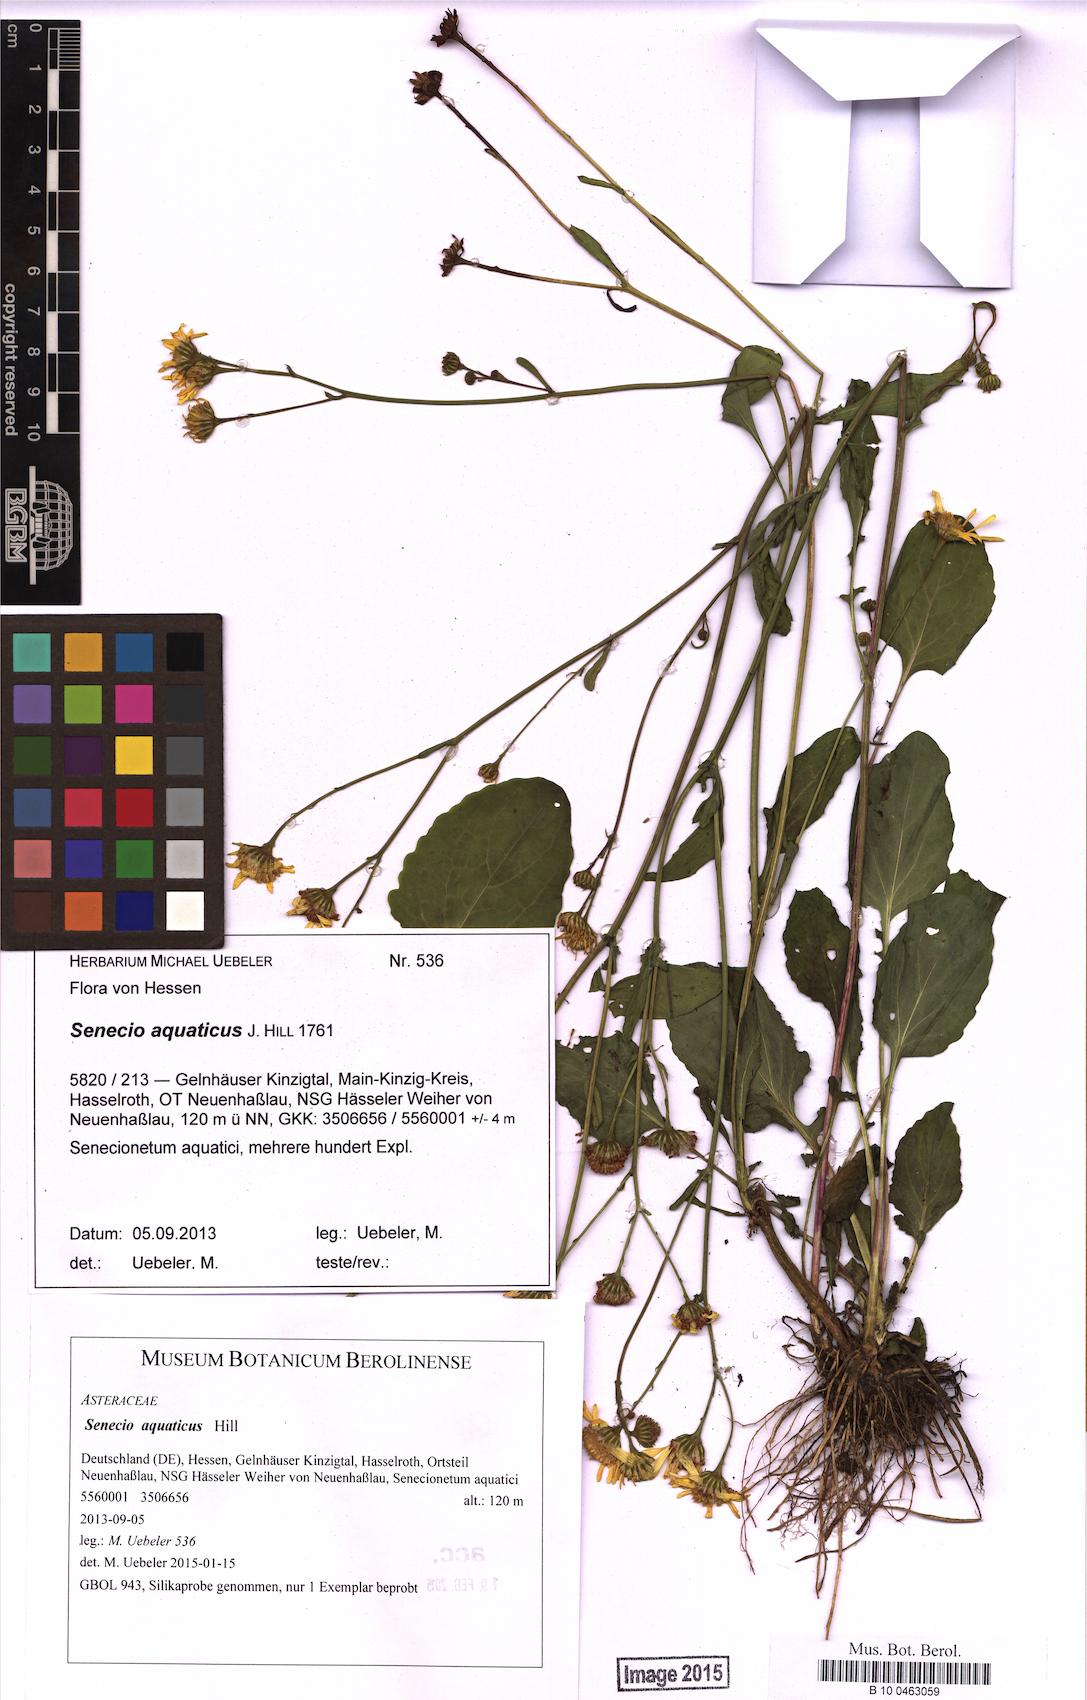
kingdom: Plantae
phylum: Tracheophyta
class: Magnoliopsida
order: Asterales
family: Asteraceae
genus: Jacobaea
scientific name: Jacobaea aquatica
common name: Water ragwort
